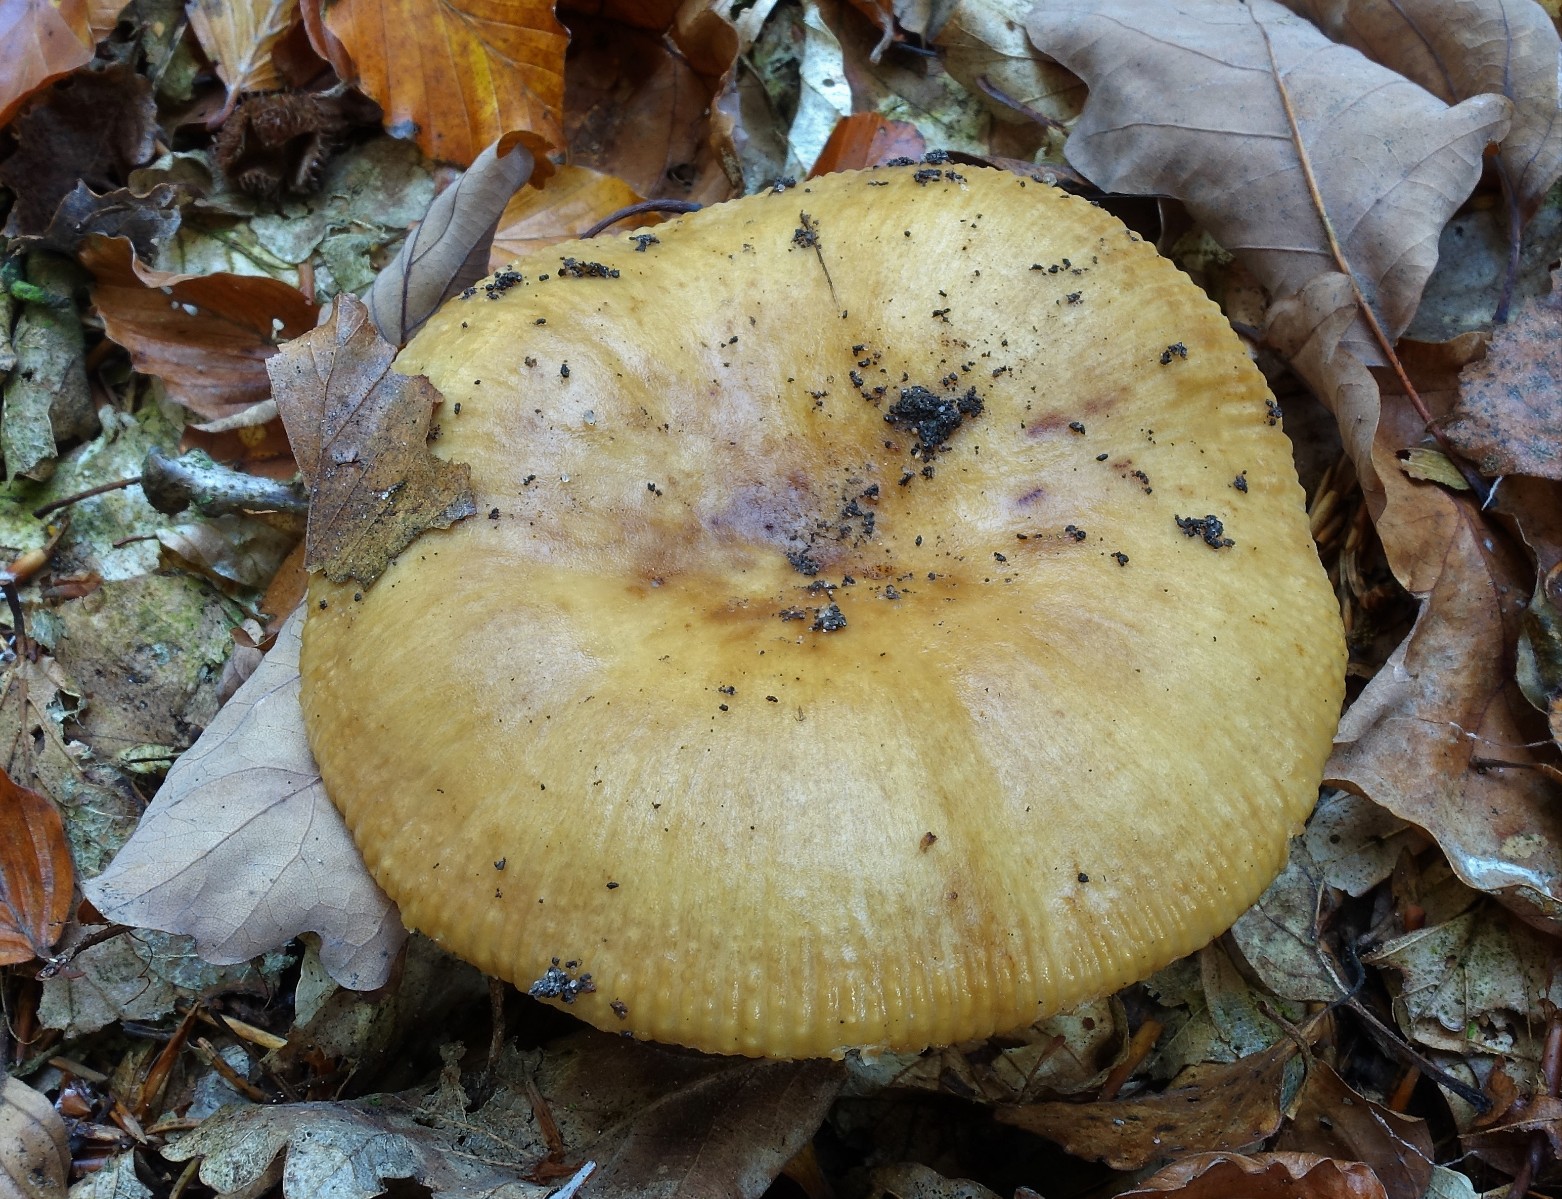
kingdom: Fungi
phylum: Basidiomycota
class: Agaricomycetes
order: Russulales
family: Russulaceae
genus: Russula
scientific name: Russula grata
